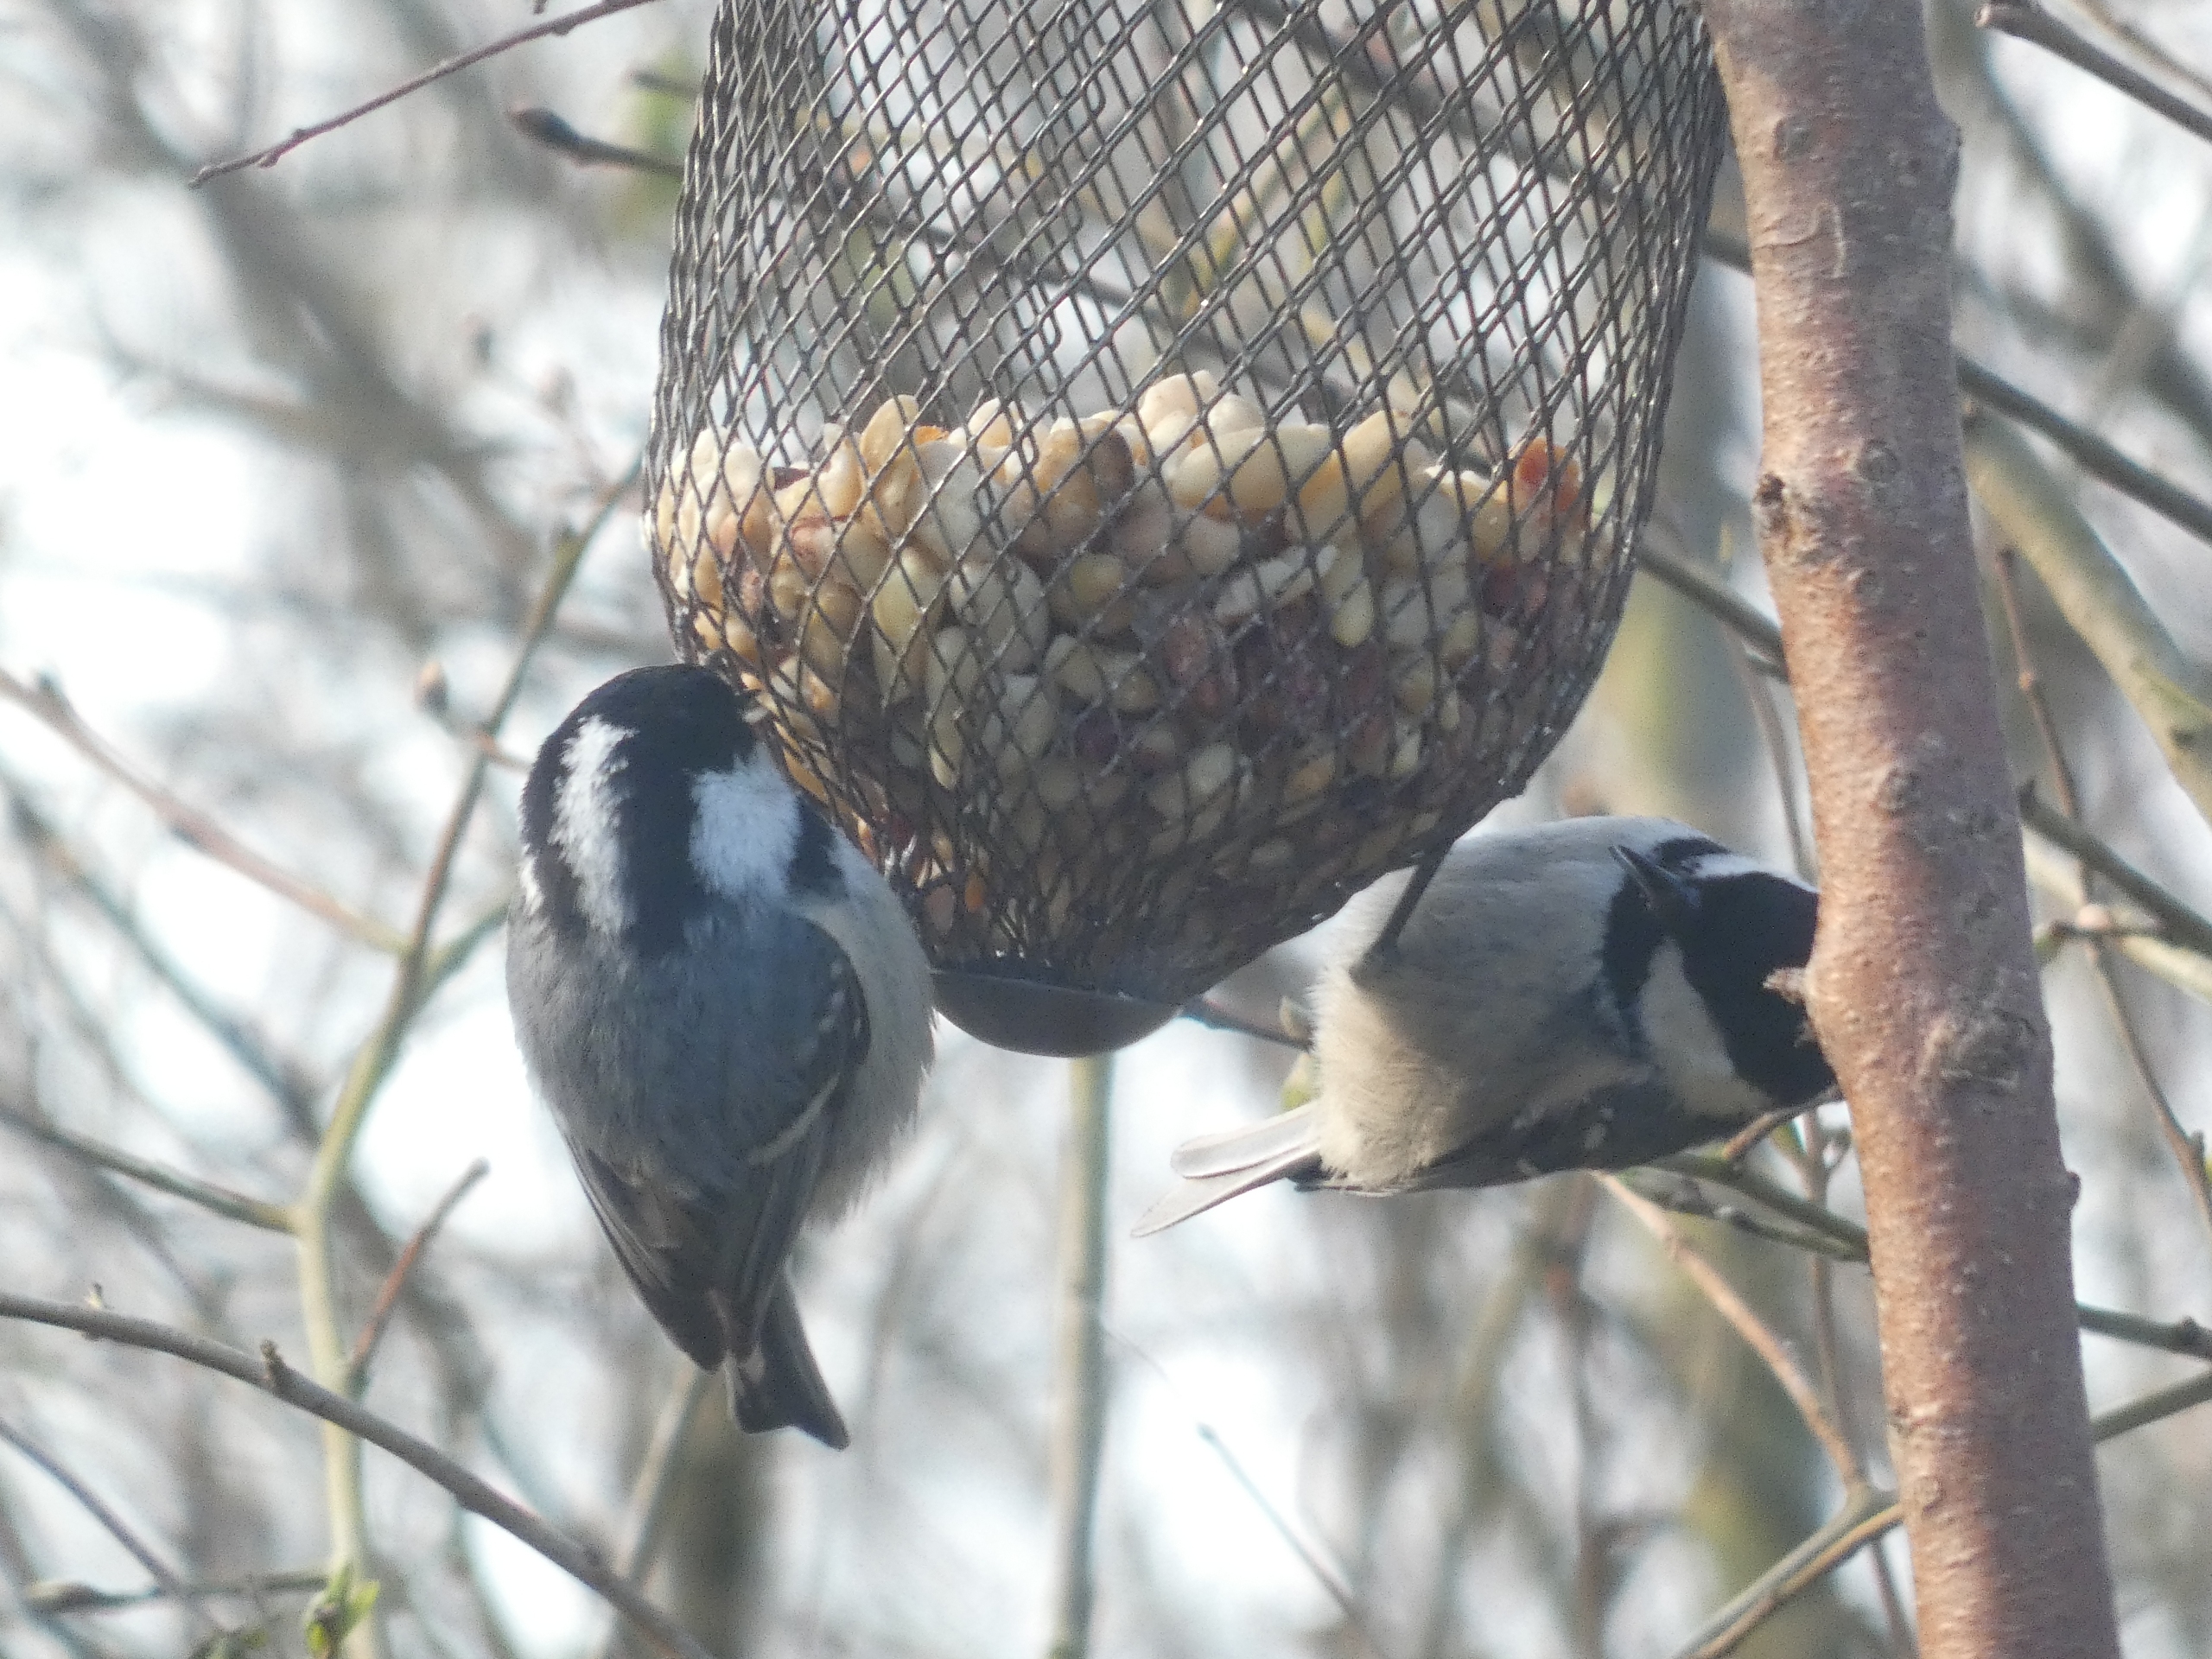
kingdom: Animalia
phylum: Chordata
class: Aves
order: Passeriformes
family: Paridae
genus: Periparus
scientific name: Periparus ater
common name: Sortmejse
